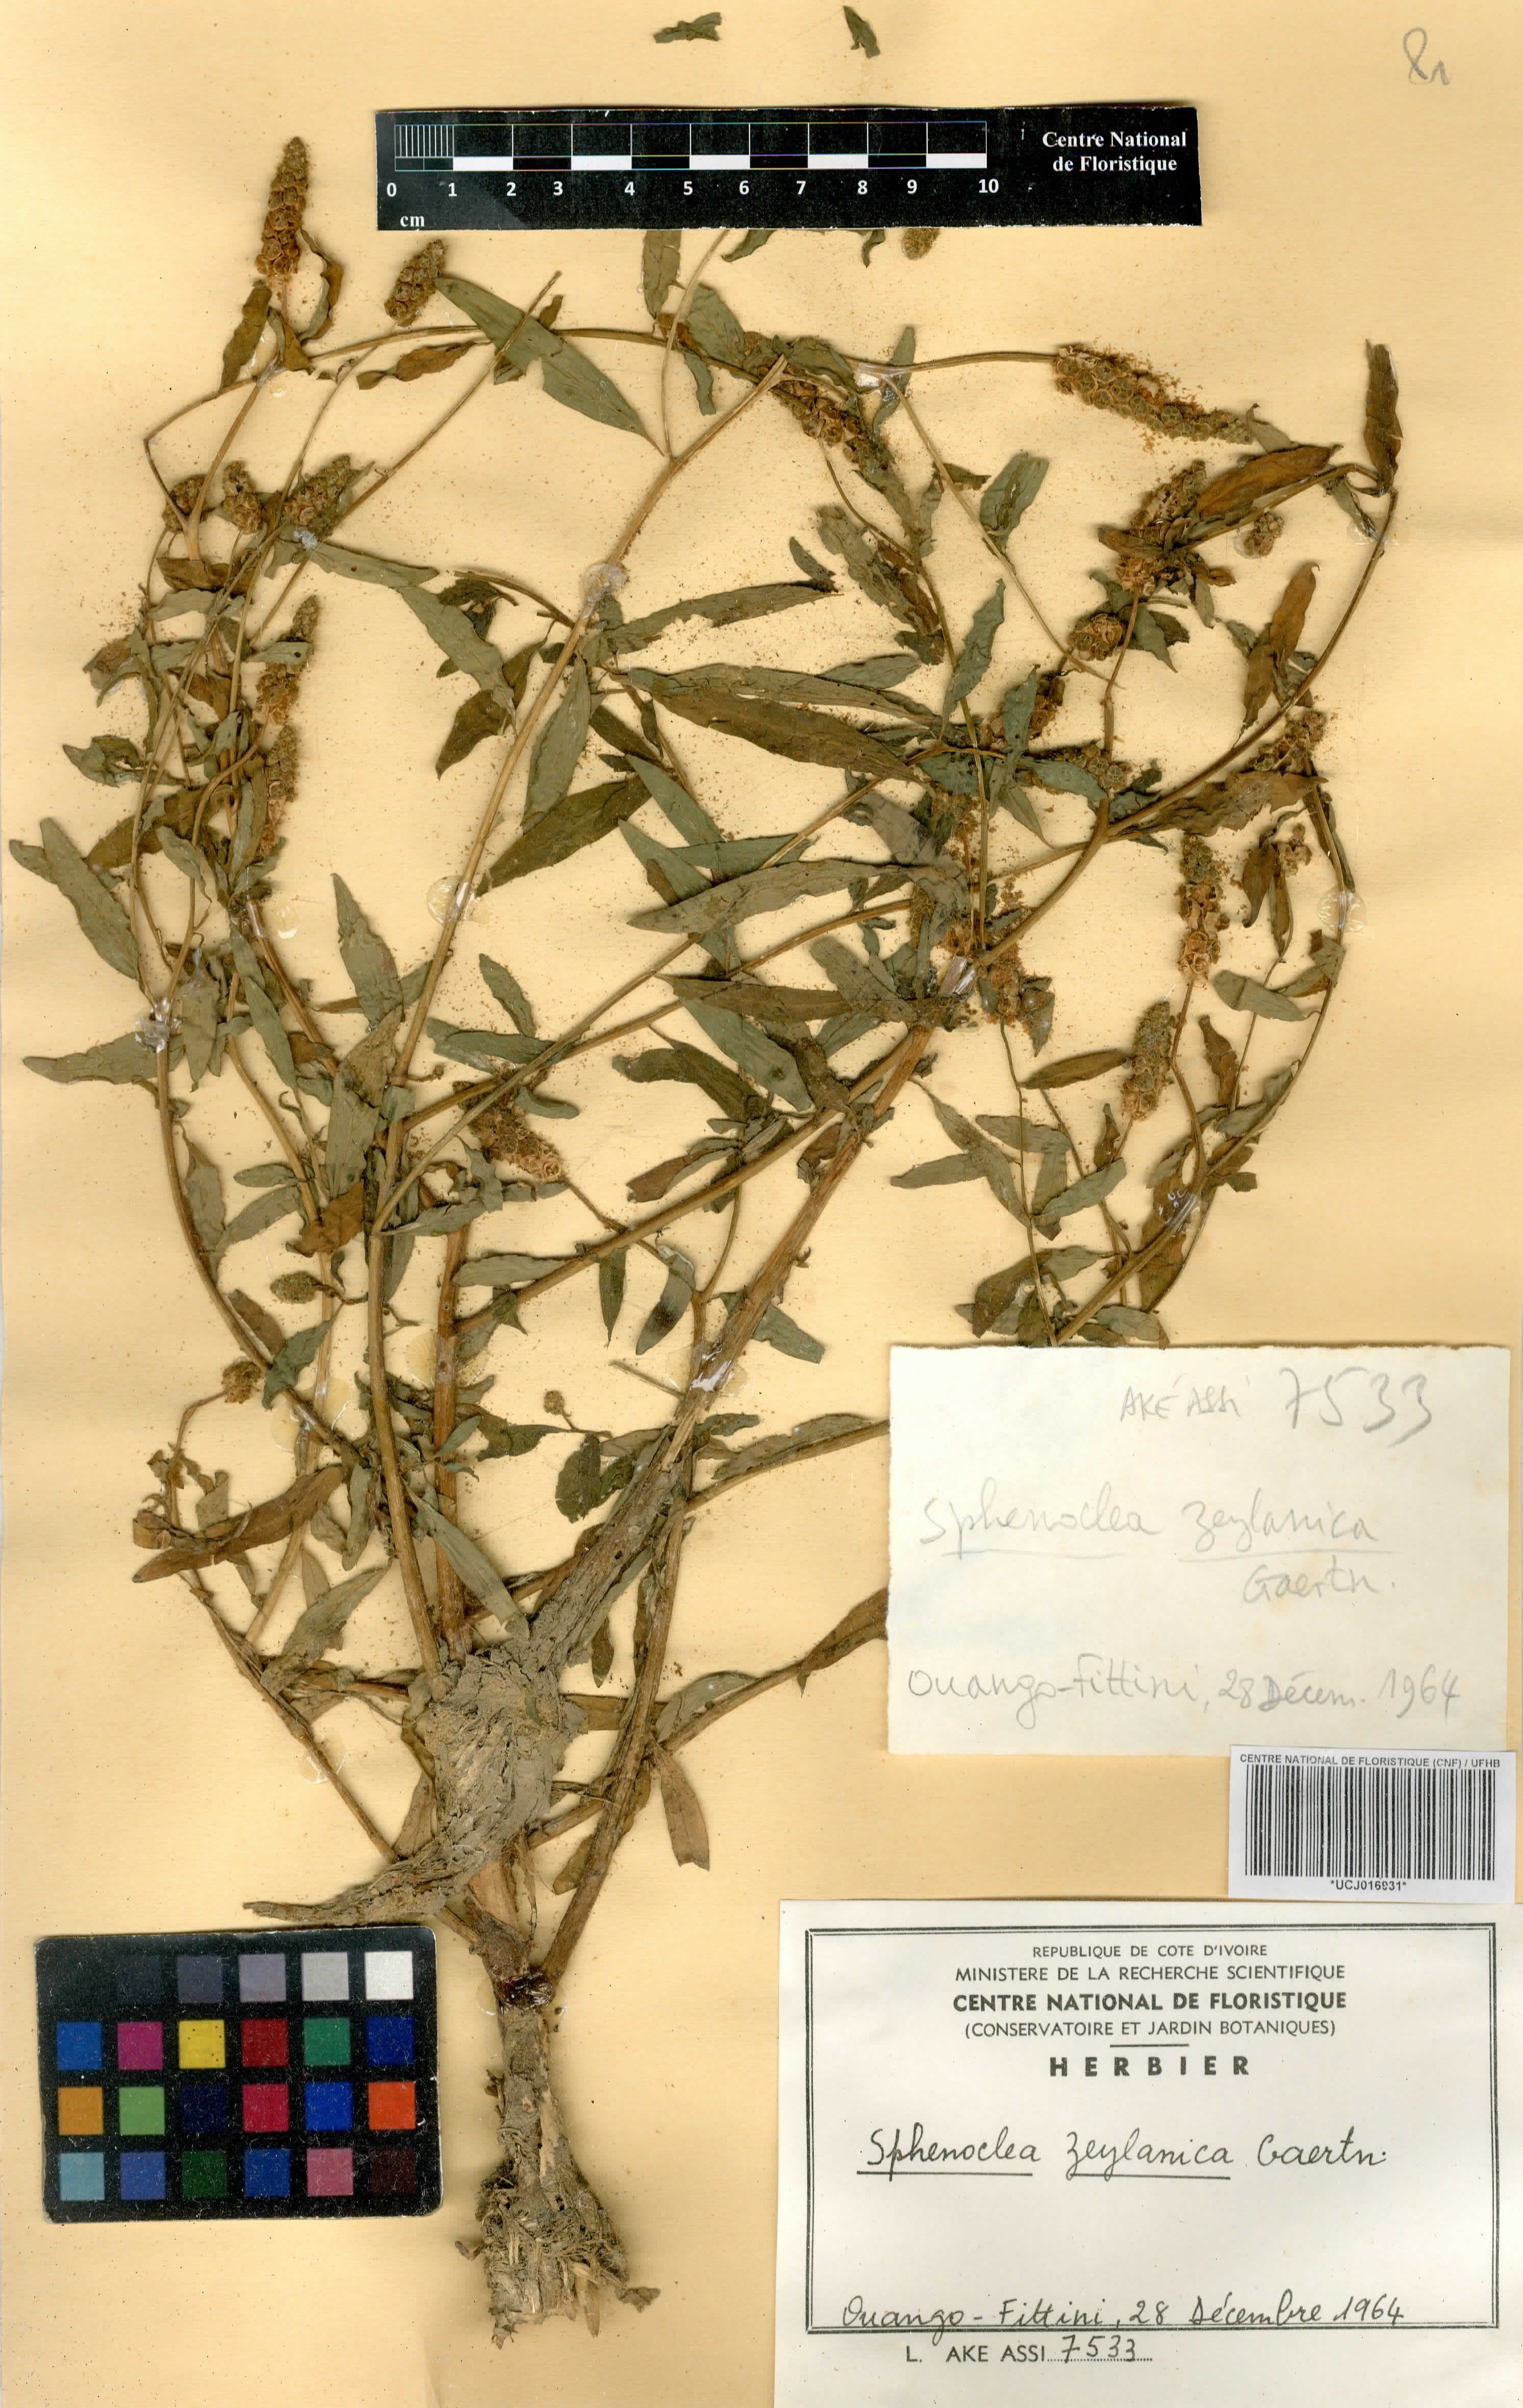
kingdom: Plantae
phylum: Tracheophyta
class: Magnoliopsida
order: Solanales
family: Sphenocleaceae
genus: Sphenoclea
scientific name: Sphenoclea zeylanica
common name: Chickenspike
